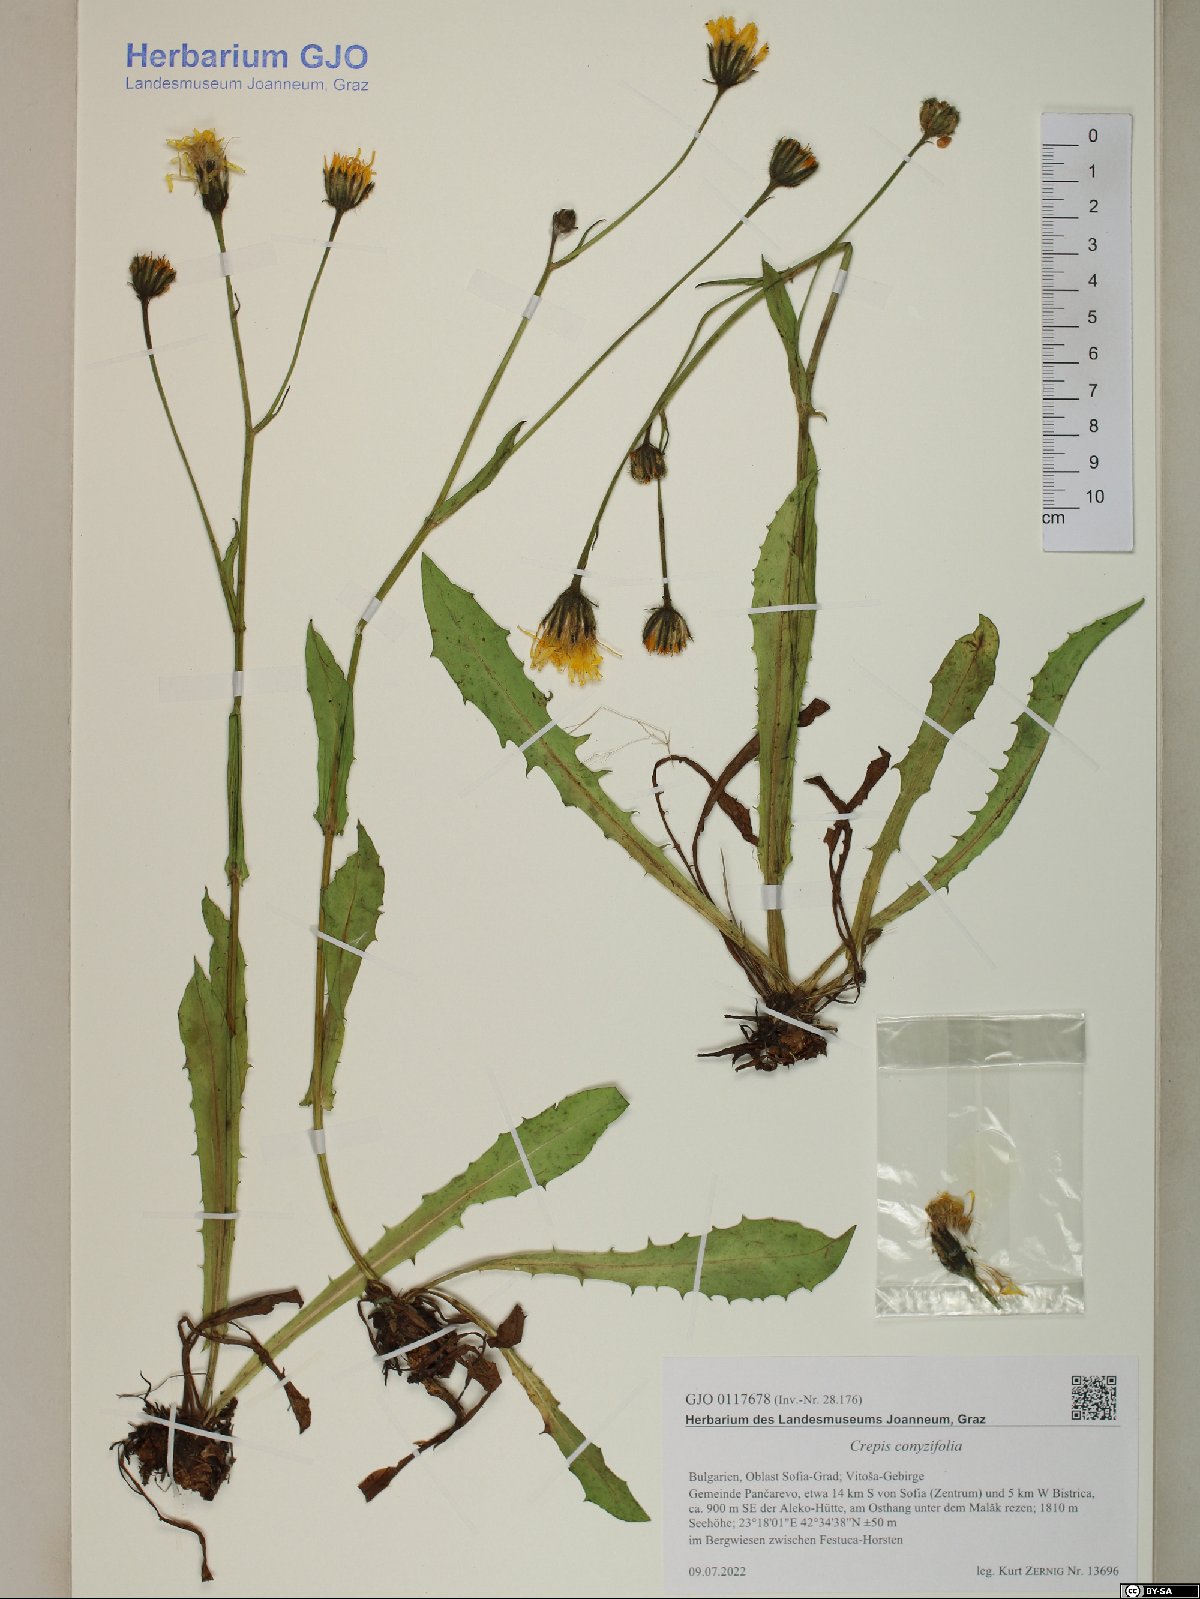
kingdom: Plantae
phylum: Tracheophyta
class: Magnoliopsida
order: Asterales
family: Asteraceae
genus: Crepis
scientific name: Crepis blattarioides
